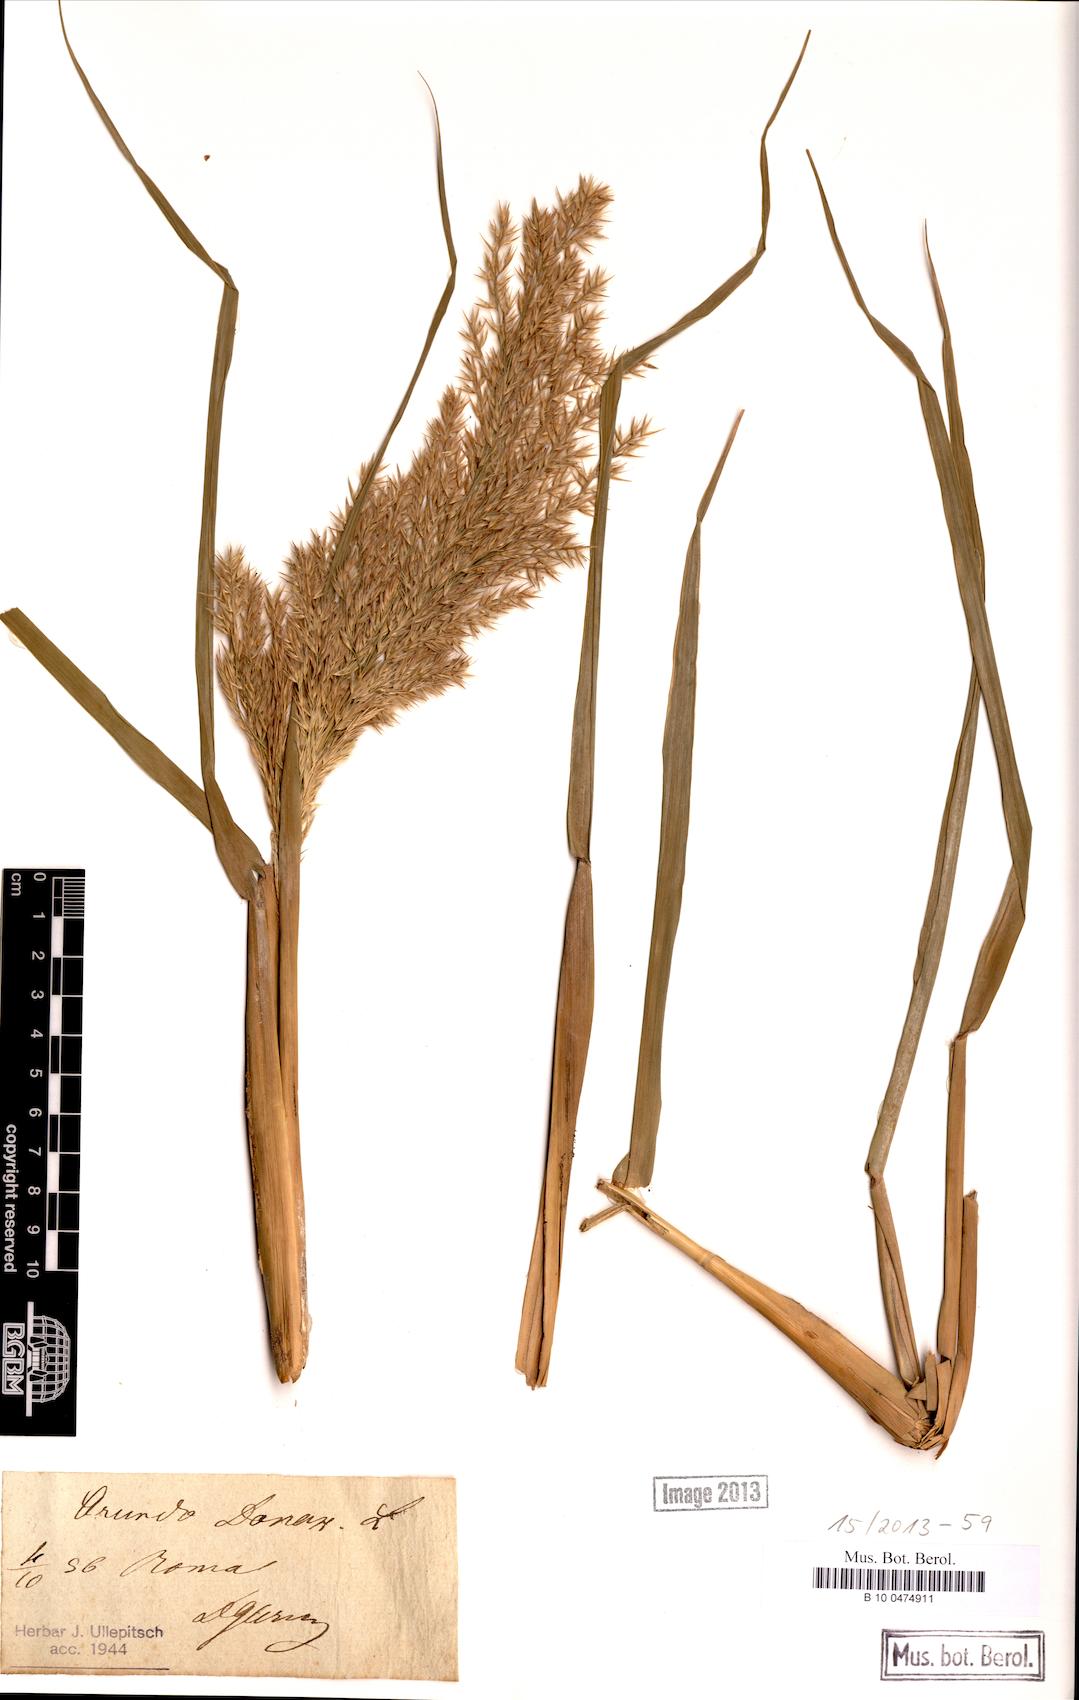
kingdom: Plantae
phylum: Tracheophyta
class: Liliopsida
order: Poales
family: Poaceae
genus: Arundo
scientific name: Arundo donax
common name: Giant reed
